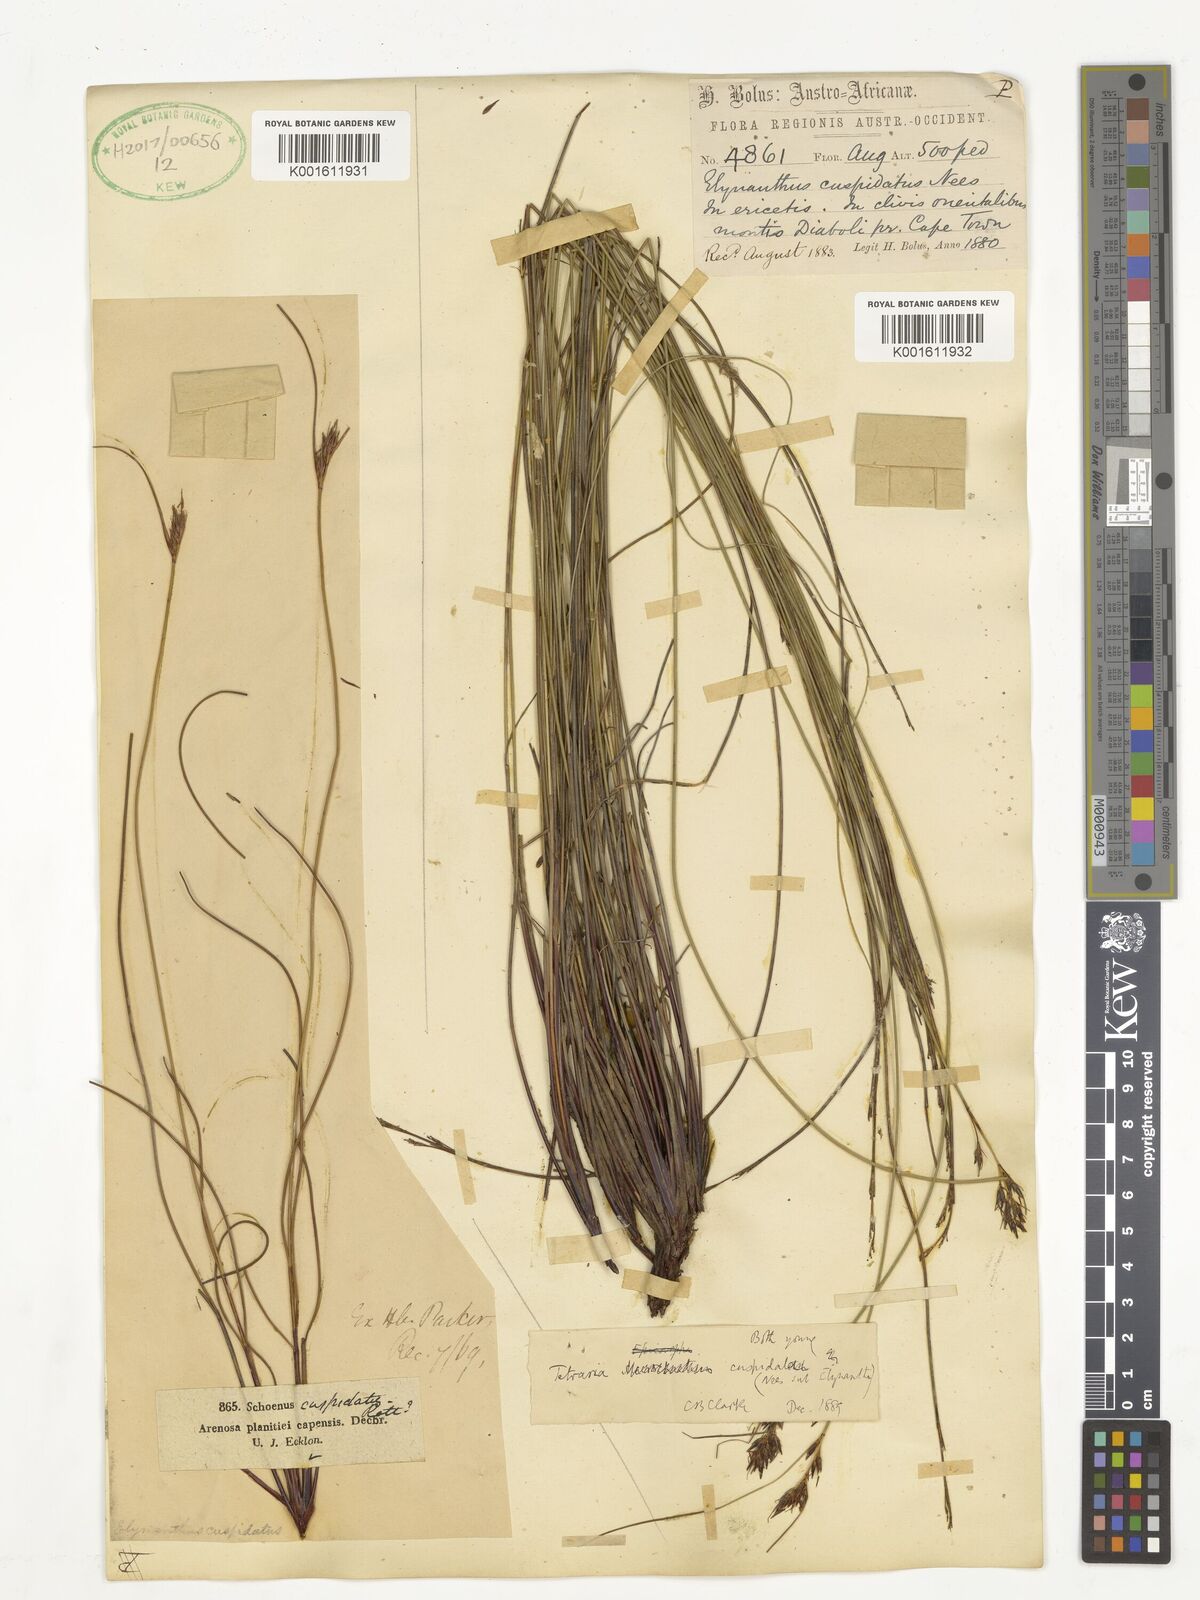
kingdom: Plantae
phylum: Tracheophyta
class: Liliopsida
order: Poales
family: Cyperaceae
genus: Schoenus
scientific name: Schoenus compactus
